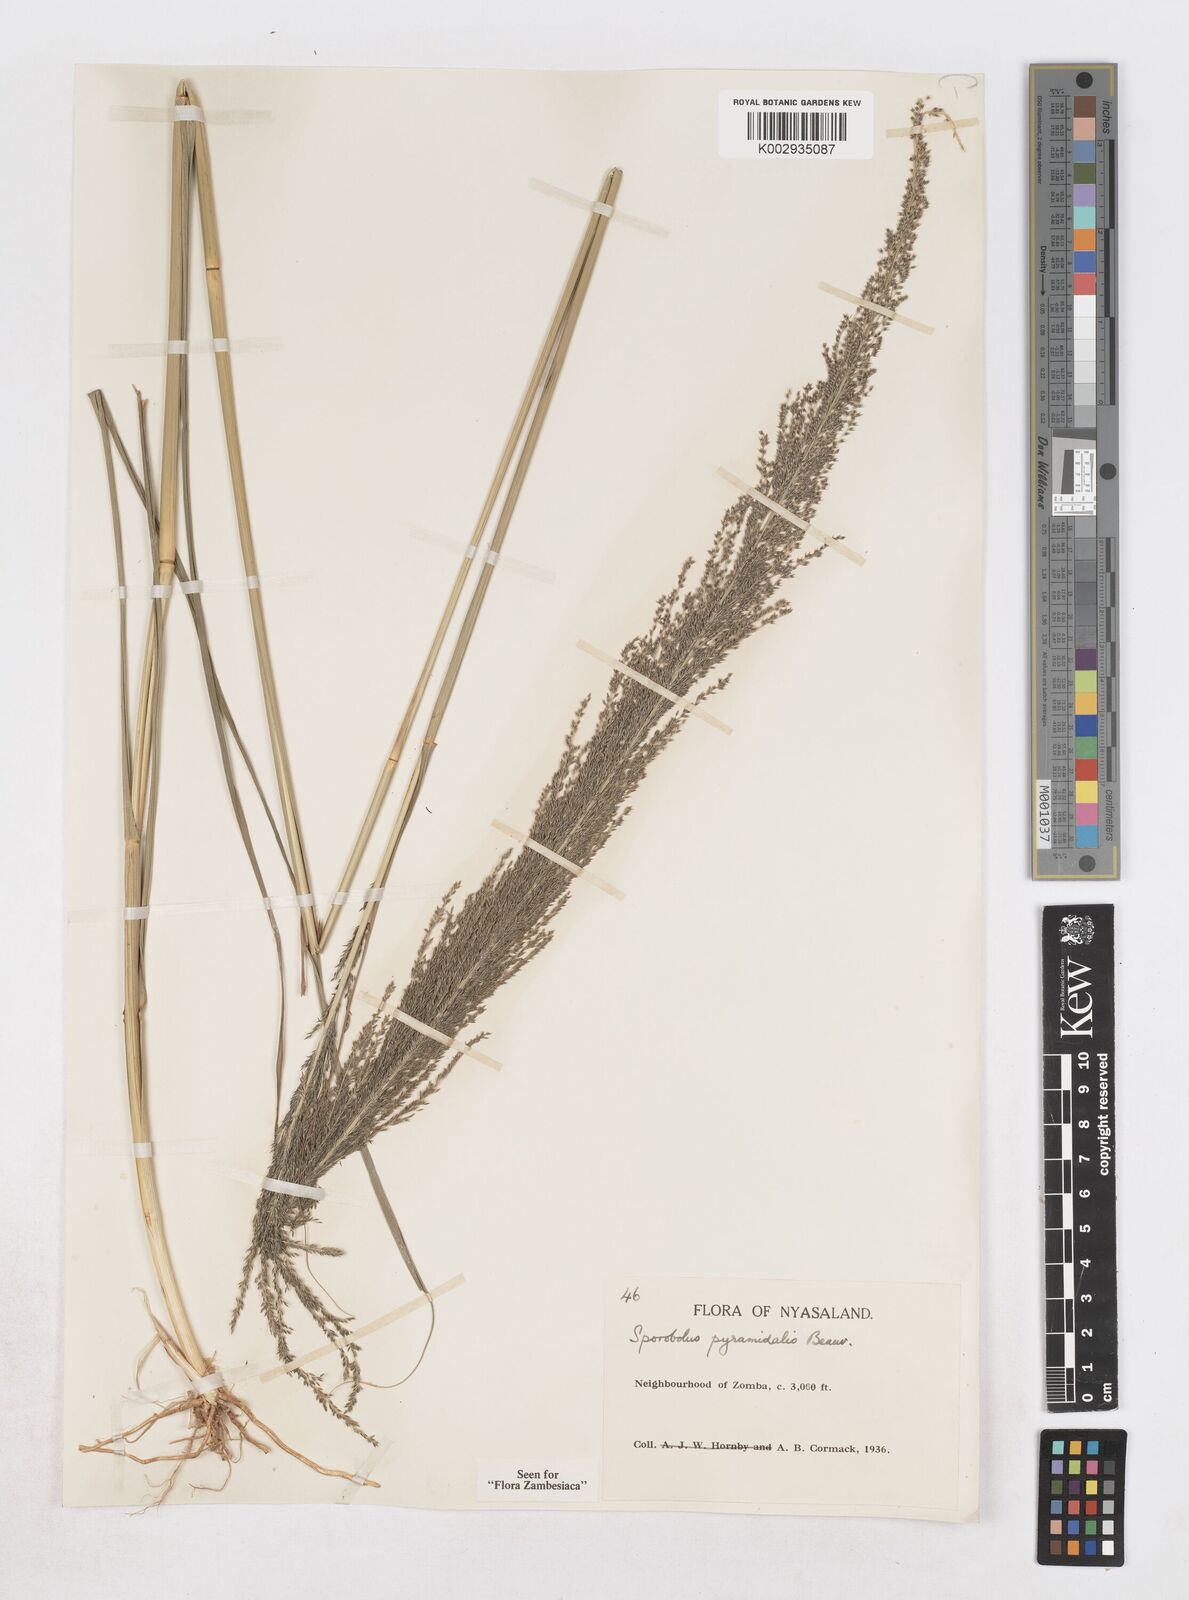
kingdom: Plantae
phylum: Tracheophyta
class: Liliopsida
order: Poales
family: Poaceae
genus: Sporobolus
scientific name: Sporobolus pyramidalis
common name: West indian dropseed
